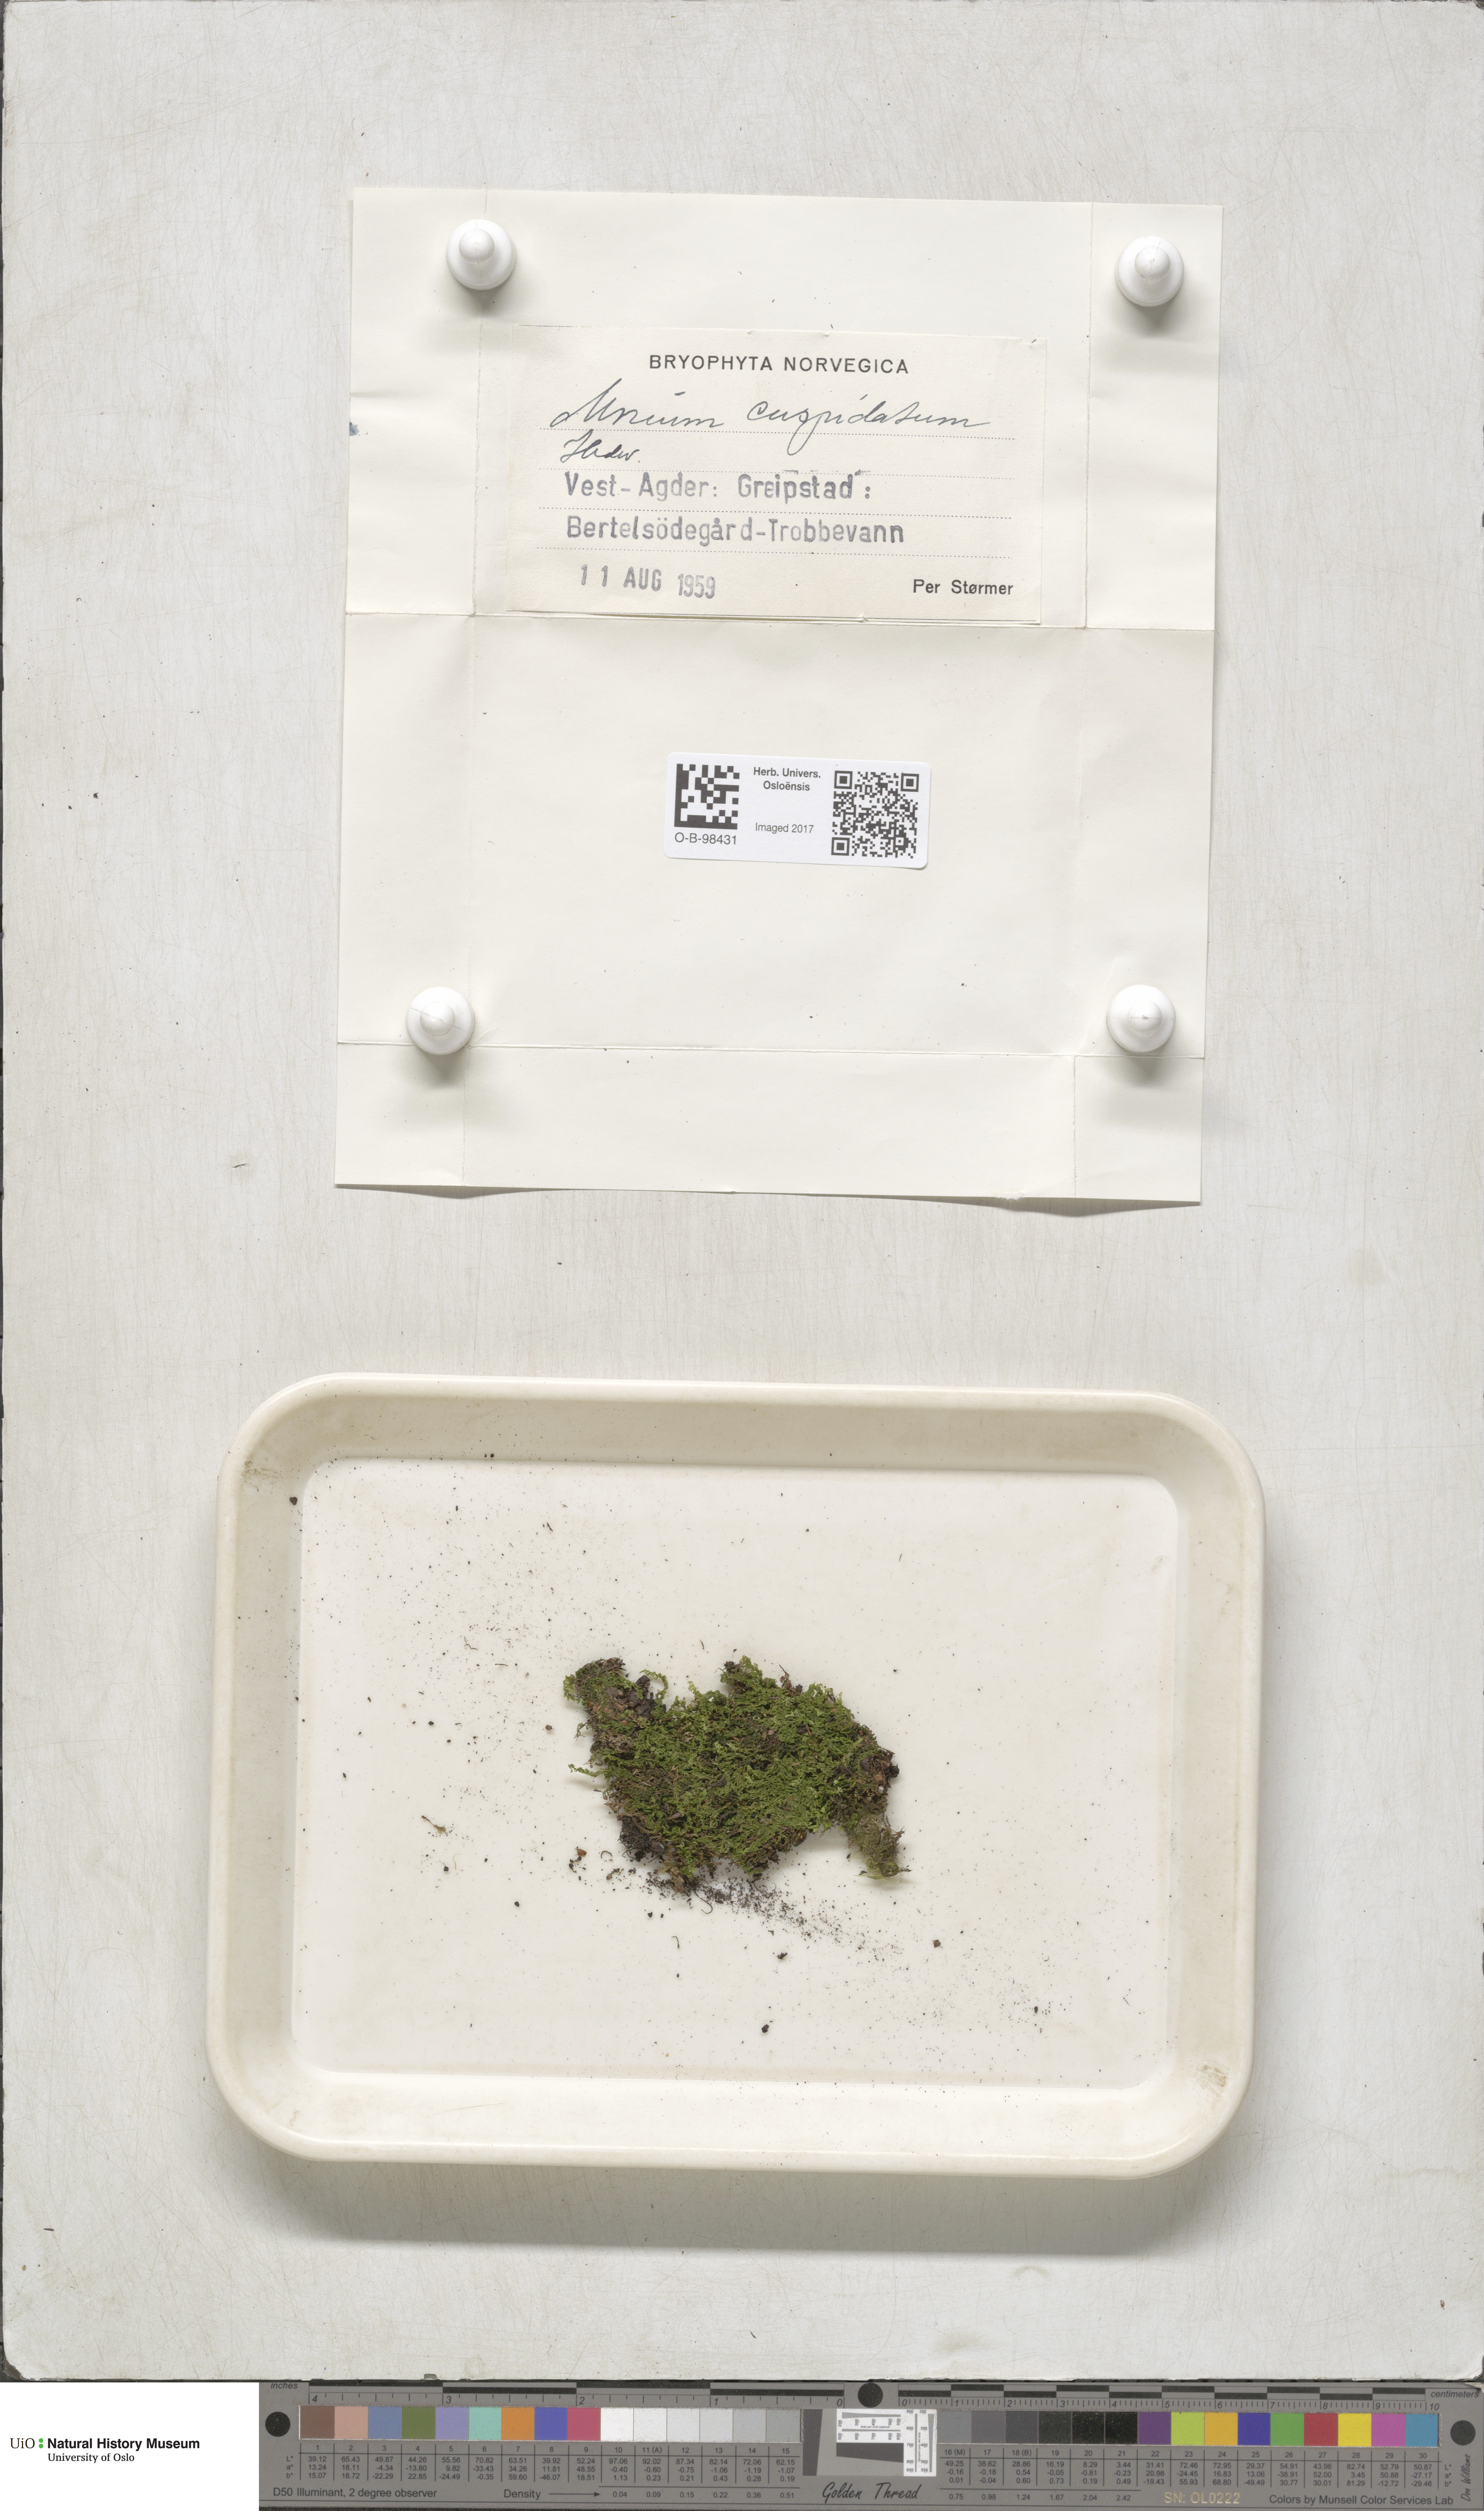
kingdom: Plantae
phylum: Bryophyta
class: Bryopsida
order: Bryales
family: Mniaceae
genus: Plagiomnium
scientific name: Plagiomnium cuspidatum
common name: Woodsy leafy moss
